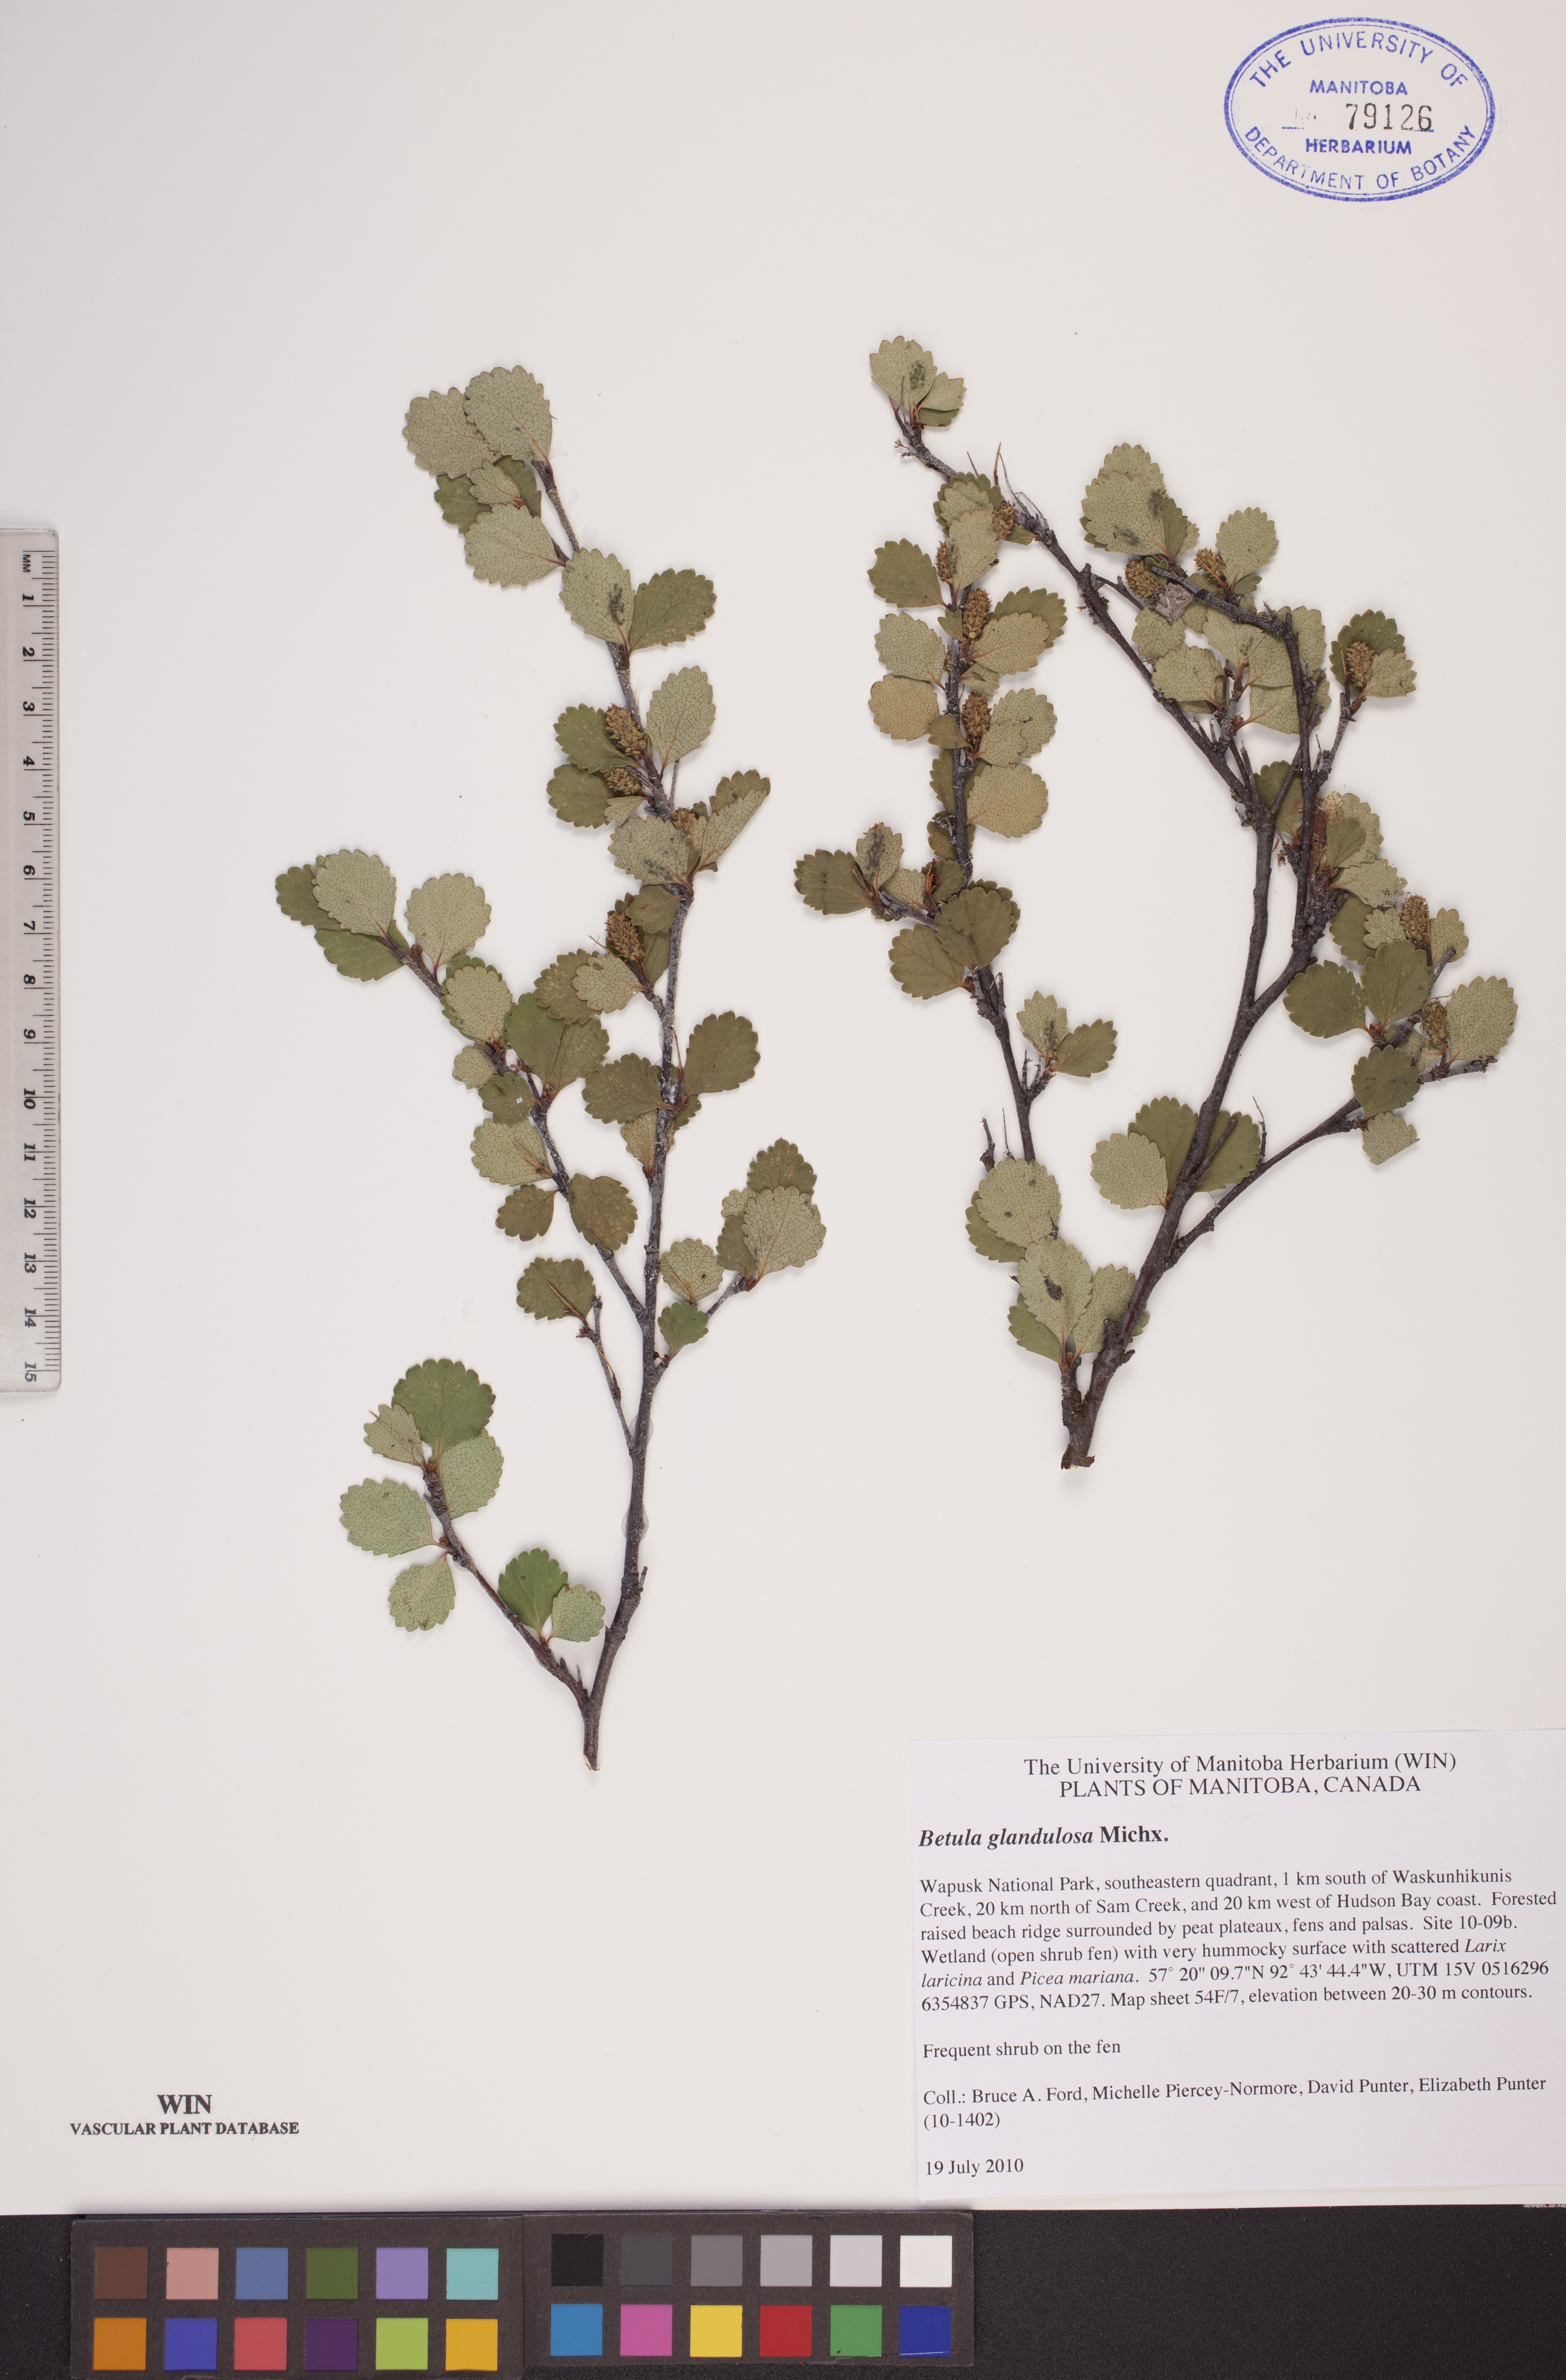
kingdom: Plantae
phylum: Tracheophyta
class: Magnoliopsida
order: Fagales
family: Betulaceae
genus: Betula
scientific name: Betula glandulosa
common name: Dwarf birch
